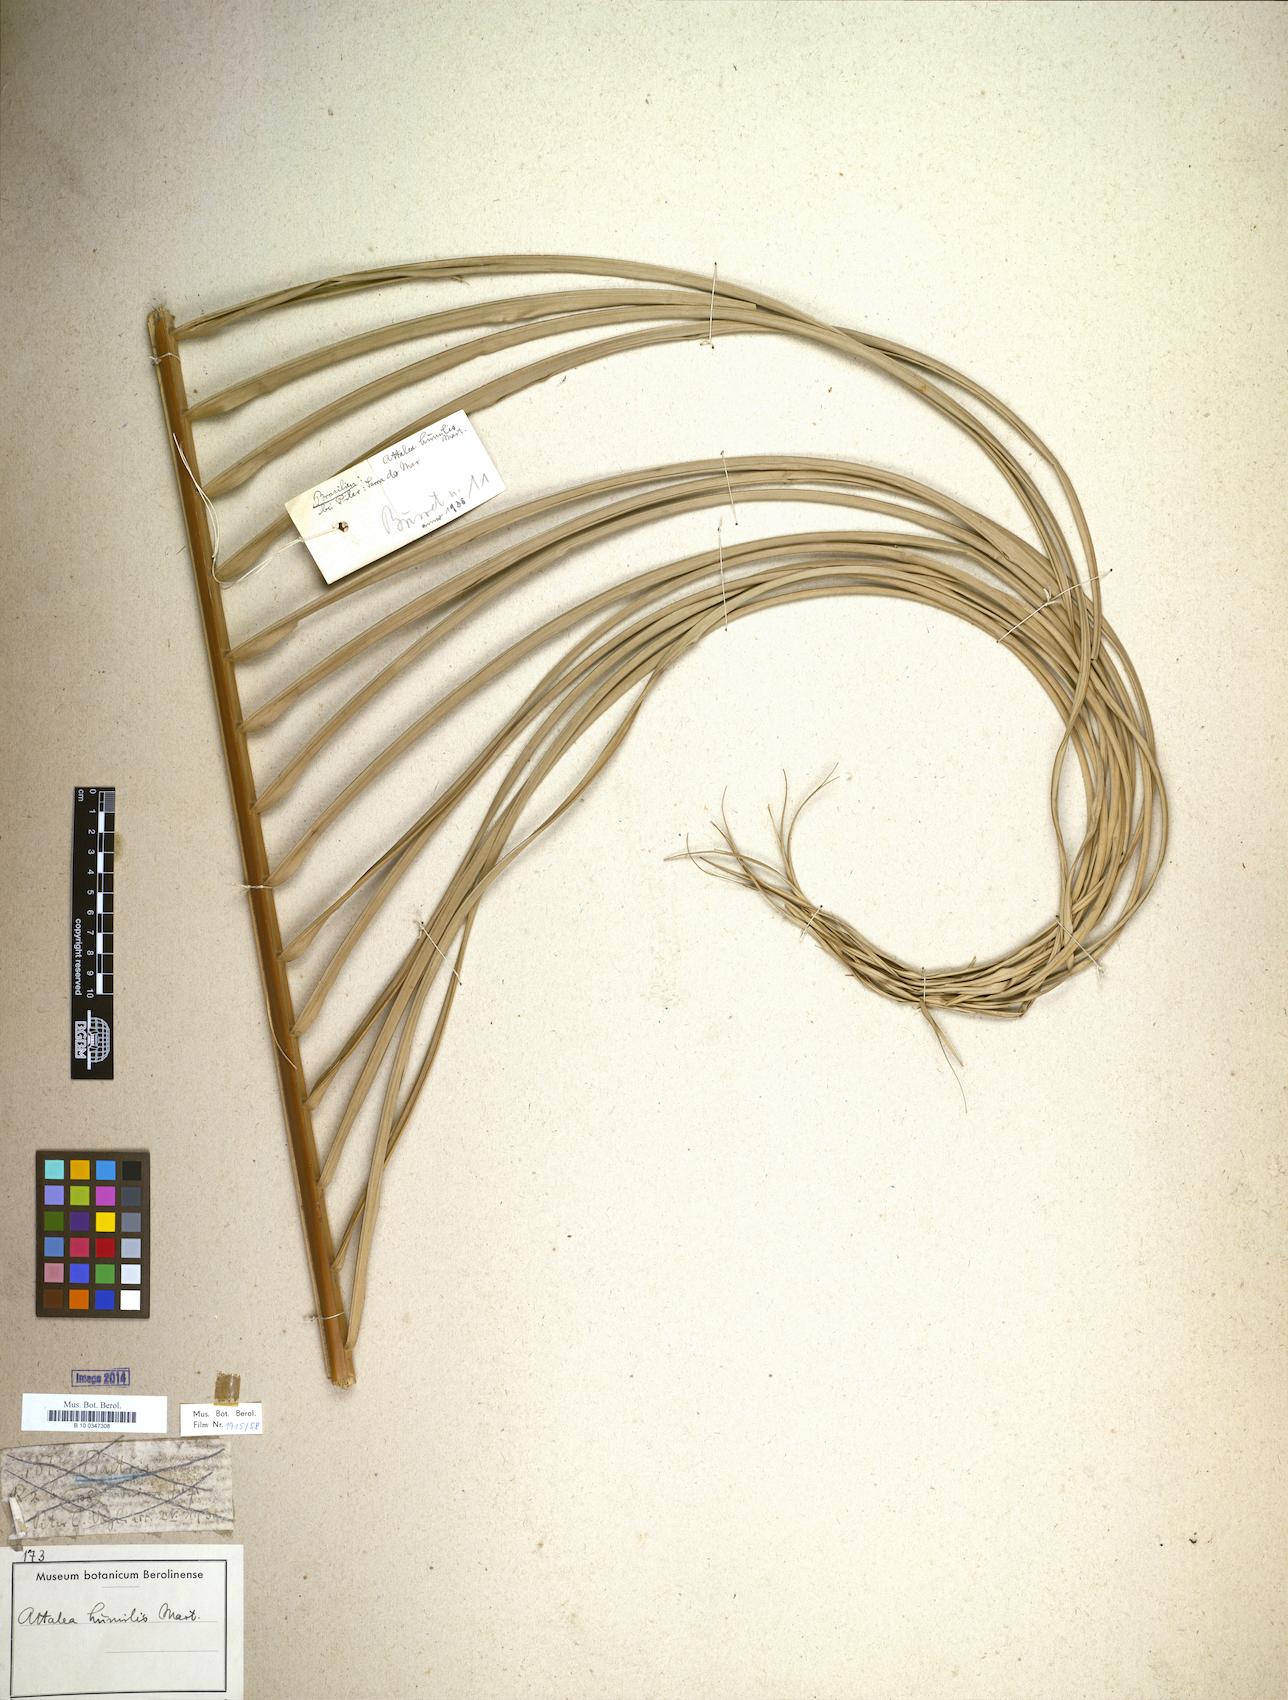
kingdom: Plantae
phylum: Tracheophyta
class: Liliopsida
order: Arecales
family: Arecaceae
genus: Attalea
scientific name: Attalea humilis
